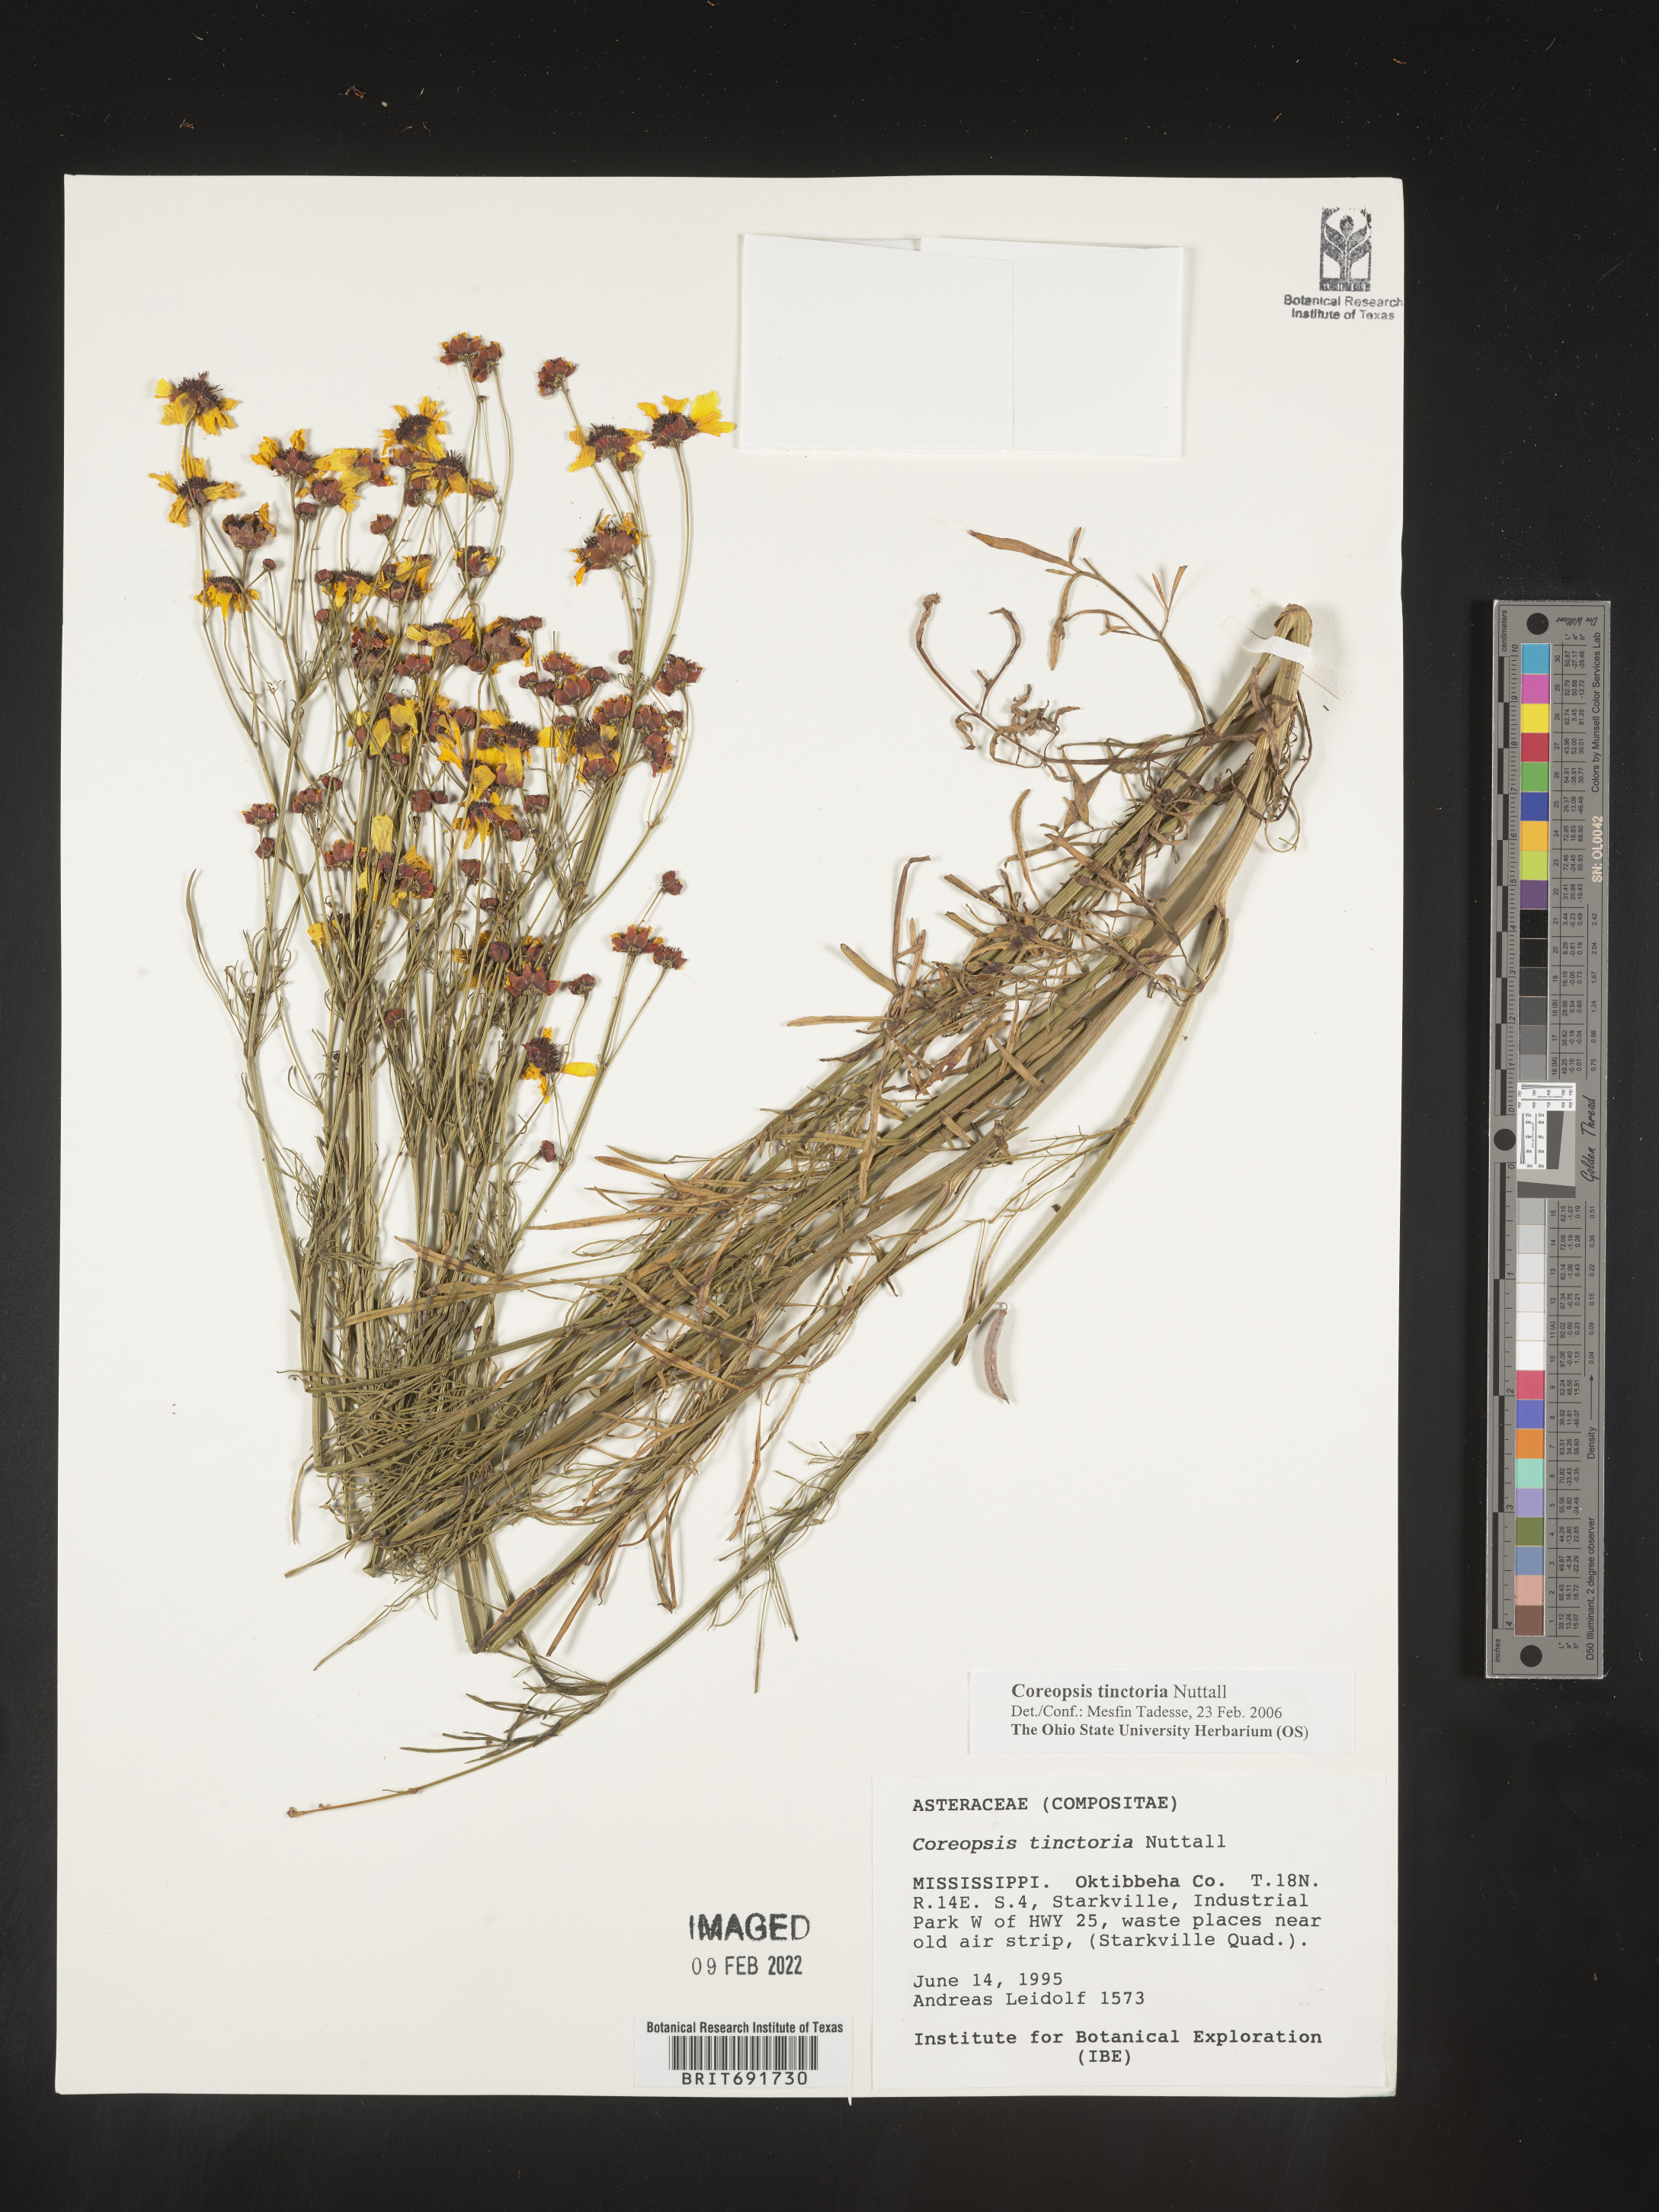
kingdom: Plantae
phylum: Tracheophyta
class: Magnoliopsida
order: Asterales
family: Asteraceae
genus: Coreopsis
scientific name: Coreopsis tinctoria
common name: Garden tickseed
